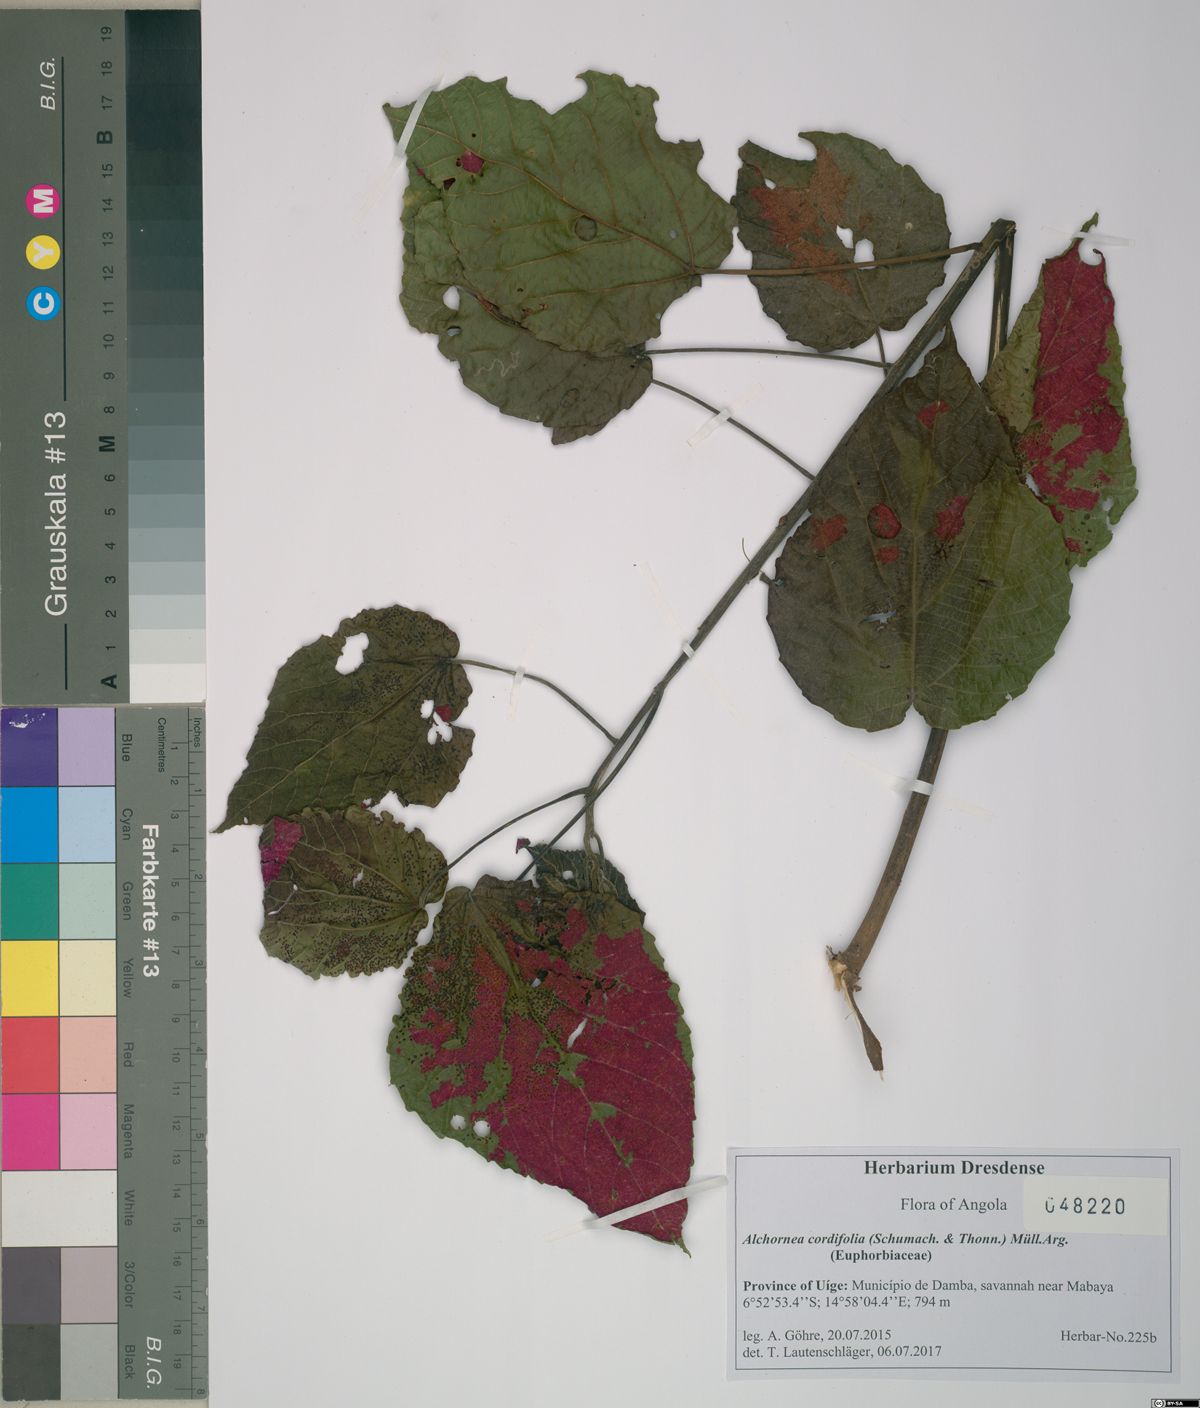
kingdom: Plantae
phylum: Tracheophyta
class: Magnoliopsida
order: Malpighiales
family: Euphorbiaceae
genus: Alchornea
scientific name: Alchornea cordifolia
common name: Christmasbush
